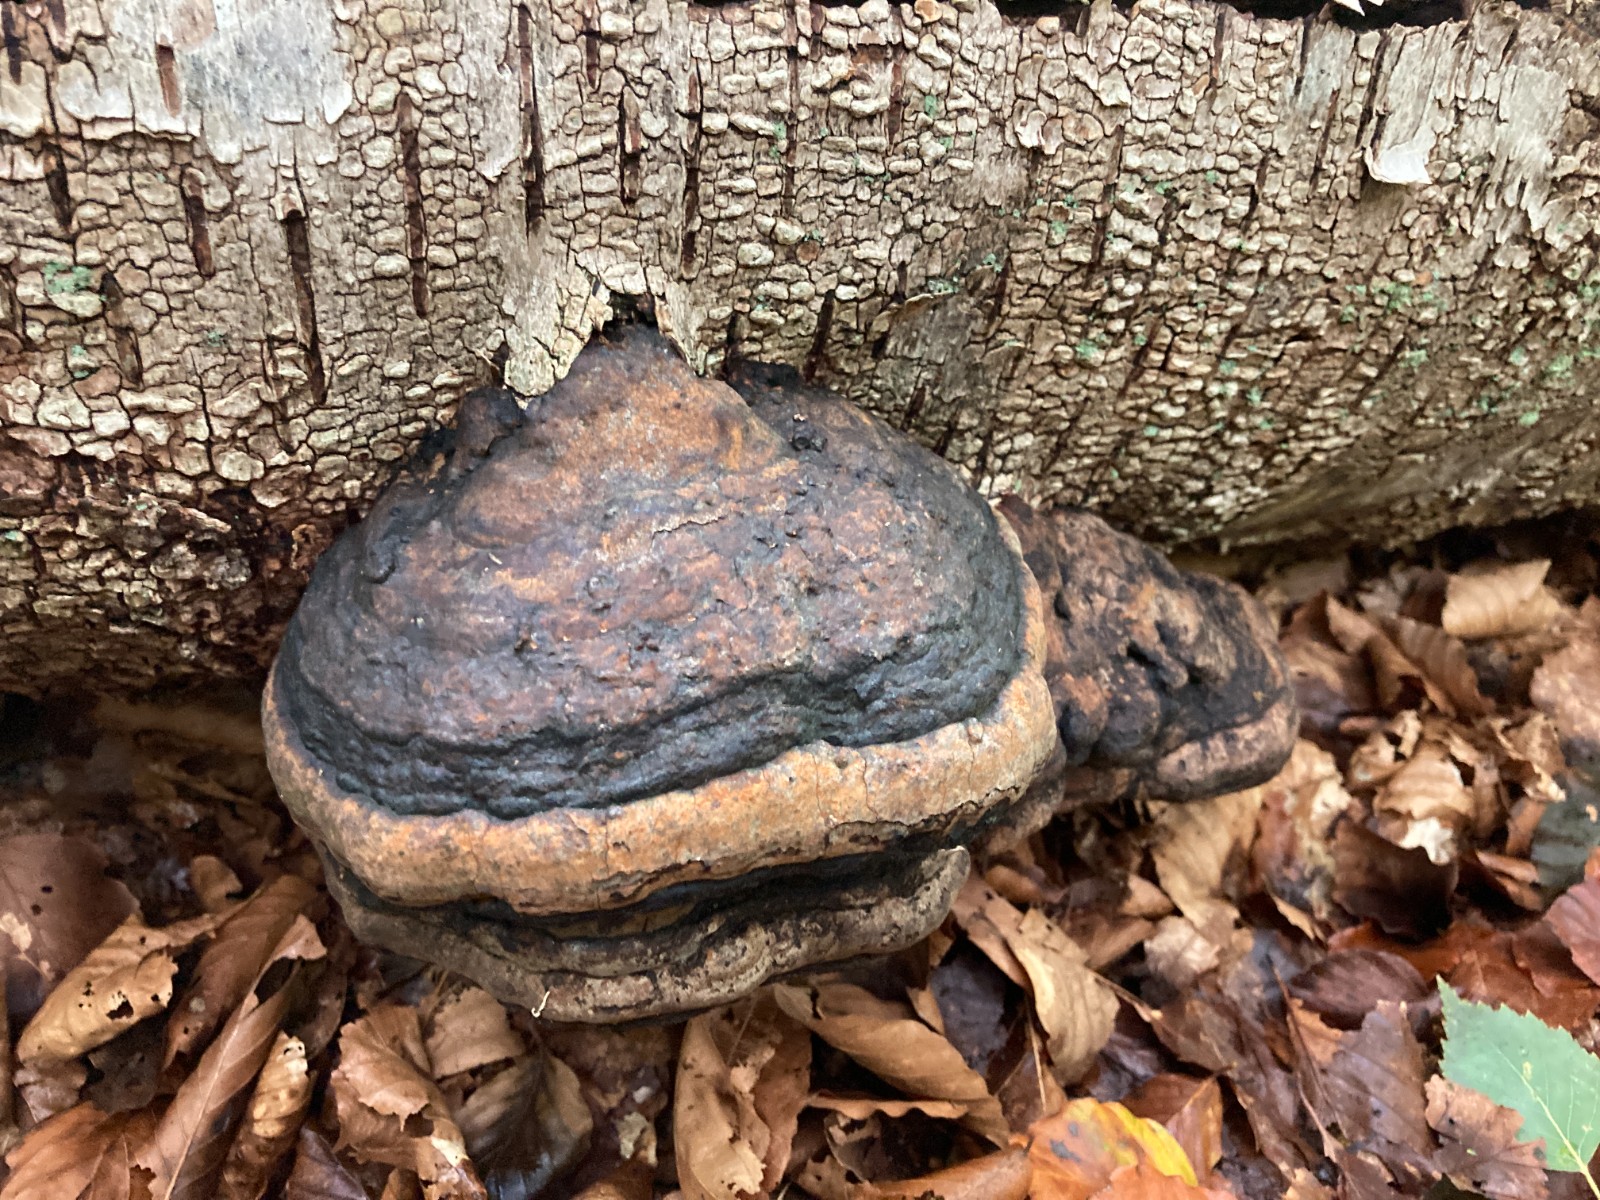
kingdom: Fungi
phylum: Basidiomycota
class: Agaricomycetes
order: Polyporales
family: Polyporaceae
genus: Fomes
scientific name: Fomes fomentarius
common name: tøndersvamp
